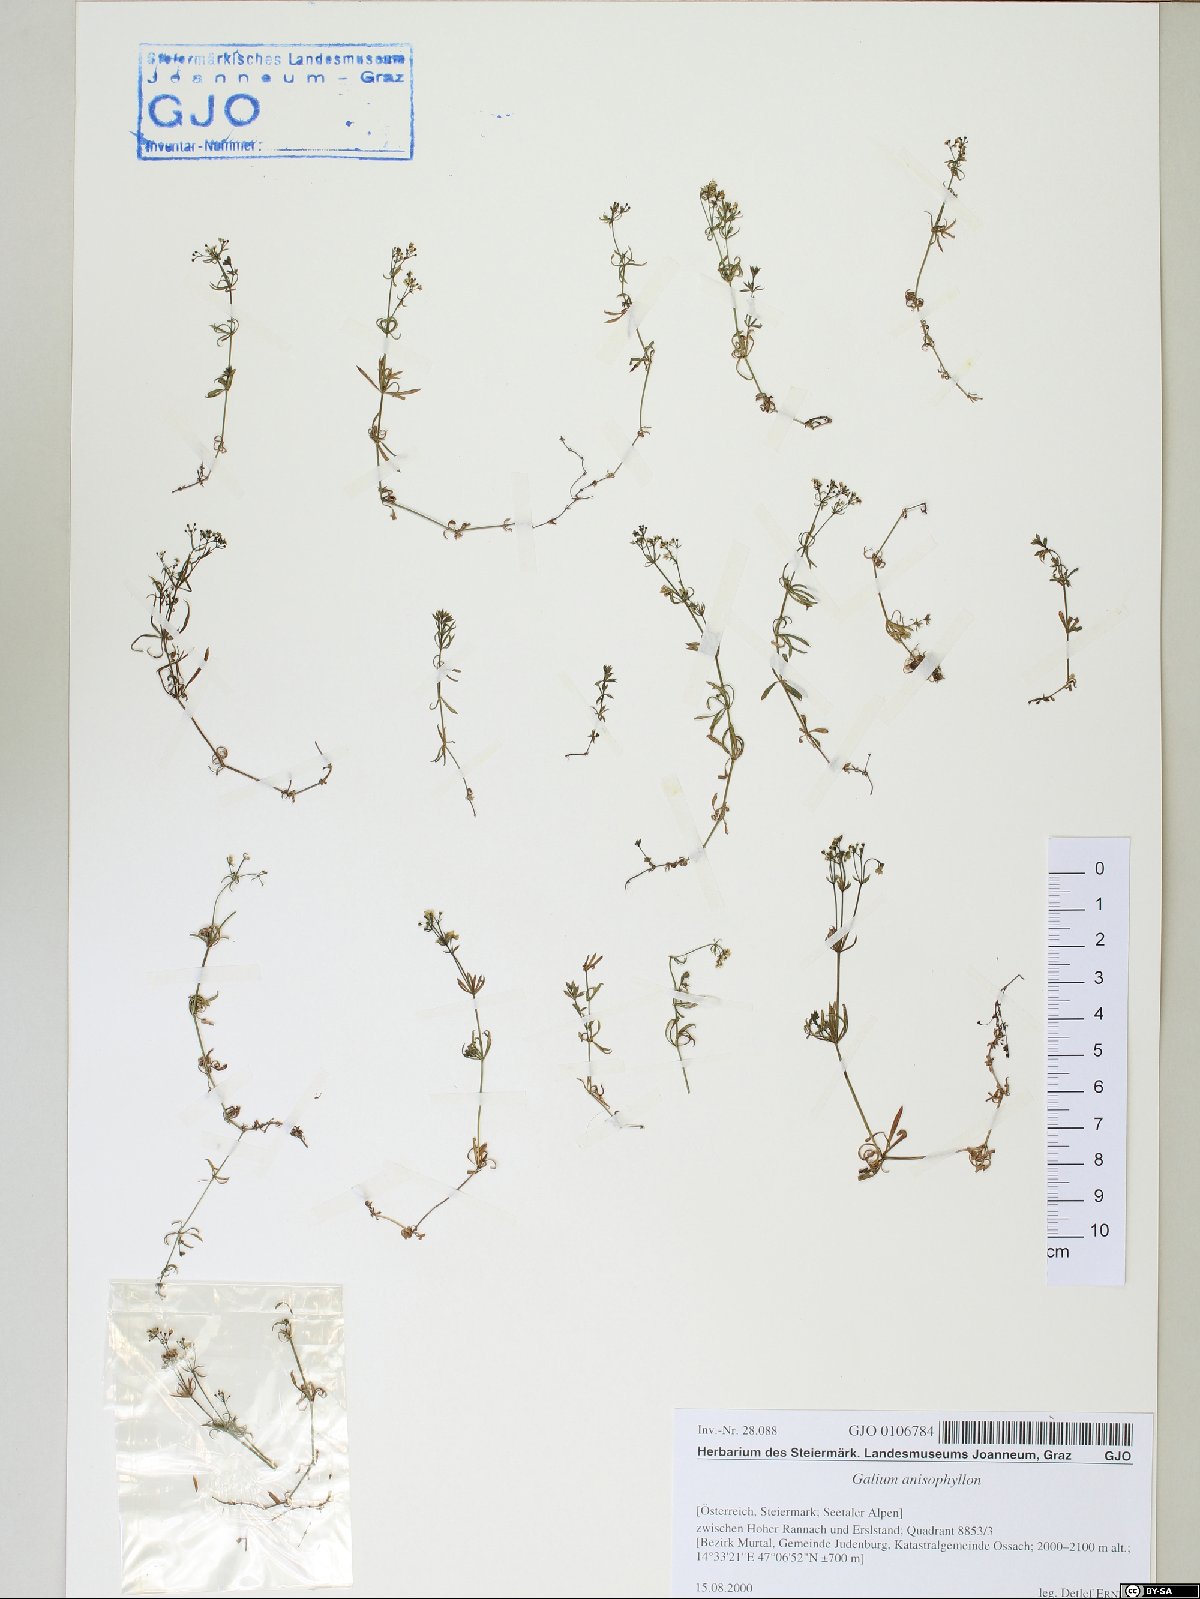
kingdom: Plantae
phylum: Tracheophyta
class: Magnoliopsida
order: Gentianales
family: Rubiaceae
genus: Galium
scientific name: Galium anisophyllon
